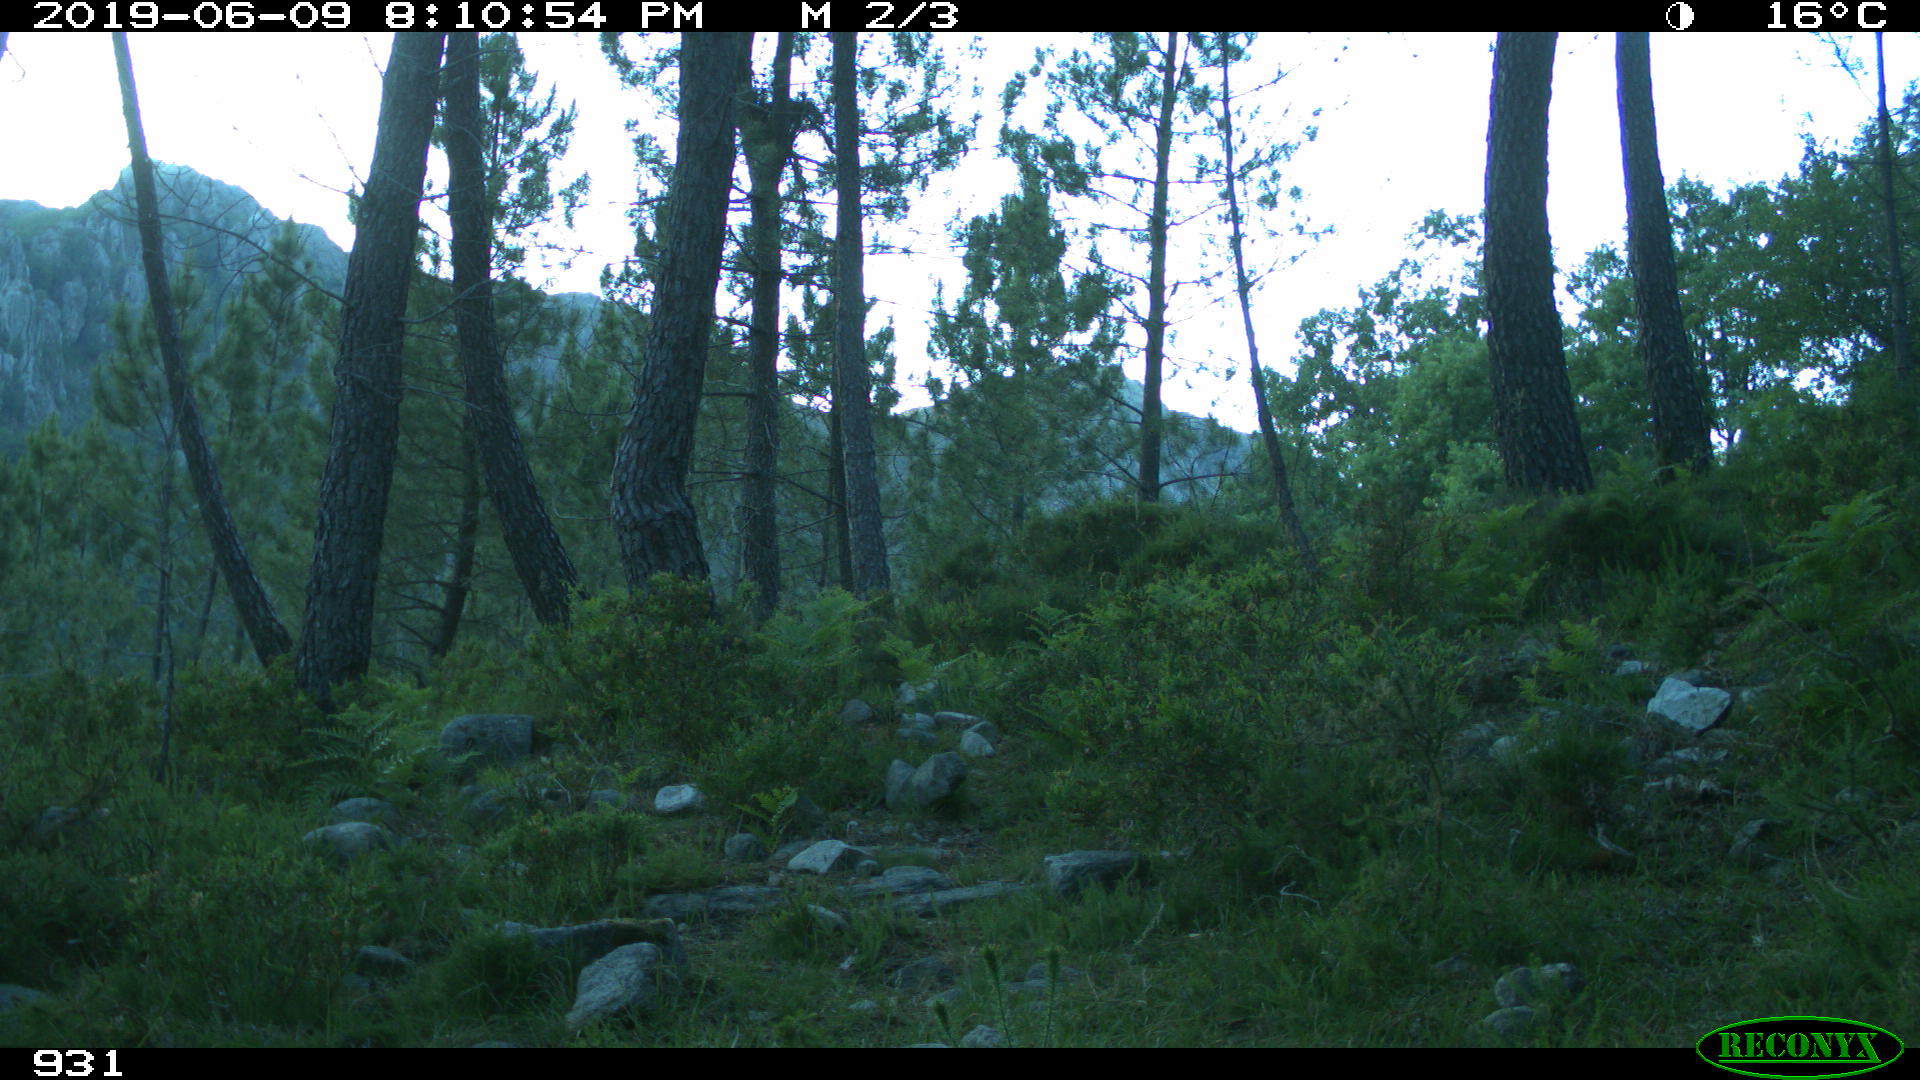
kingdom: Animalia
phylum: Chordata
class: Mammalia
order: Artiodactyla
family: Bovidae
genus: Bos
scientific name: Bos taurus
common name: Domesticated cattle
